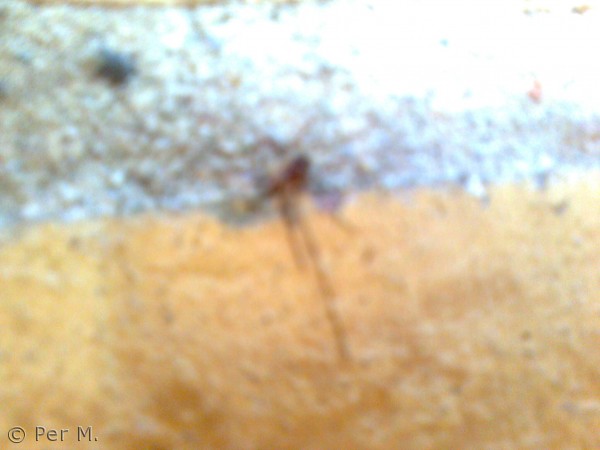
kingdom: Animalia
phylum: Arthropoda
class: Arachnida
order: Araneae
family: Pholcidae
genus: Pholcus
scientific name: Pholcus phalangioides
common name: Mejeredderkop
